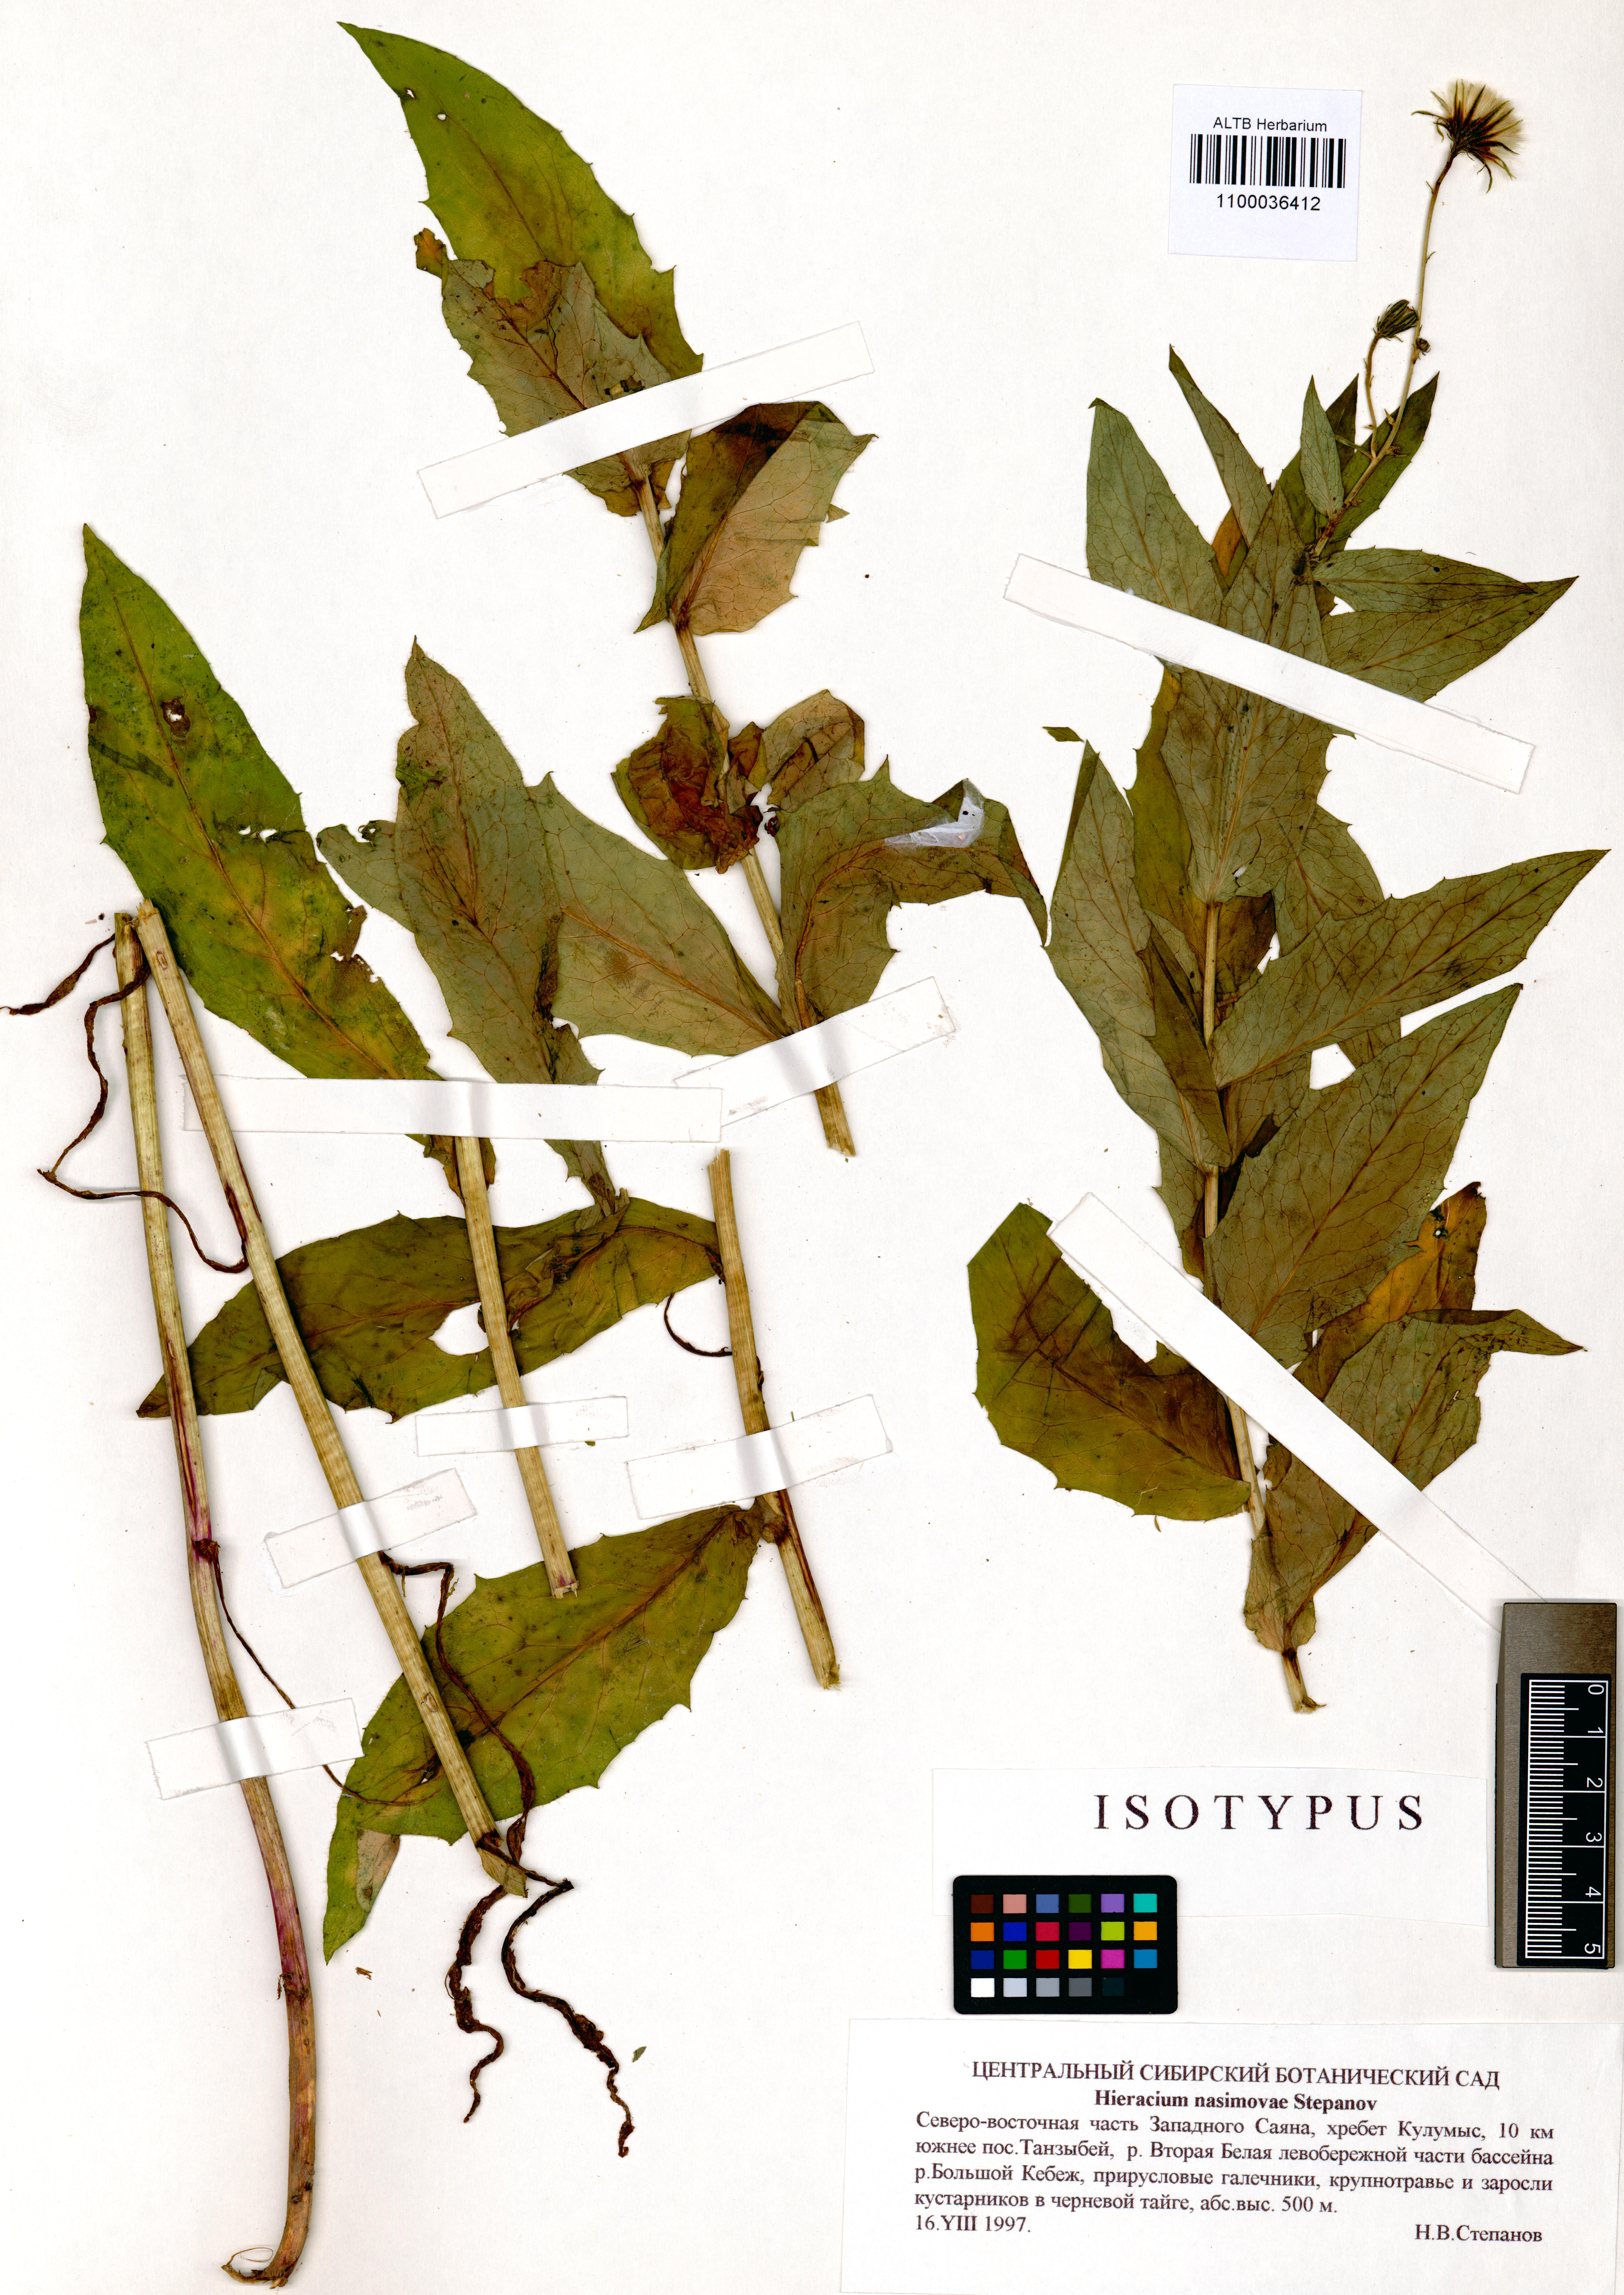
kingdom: Plantae
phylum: Tracheophyta
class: Magnoliopsida
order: Asterales
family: Asteraceae
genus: Hieracium
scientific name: Hieracium nasimovae
